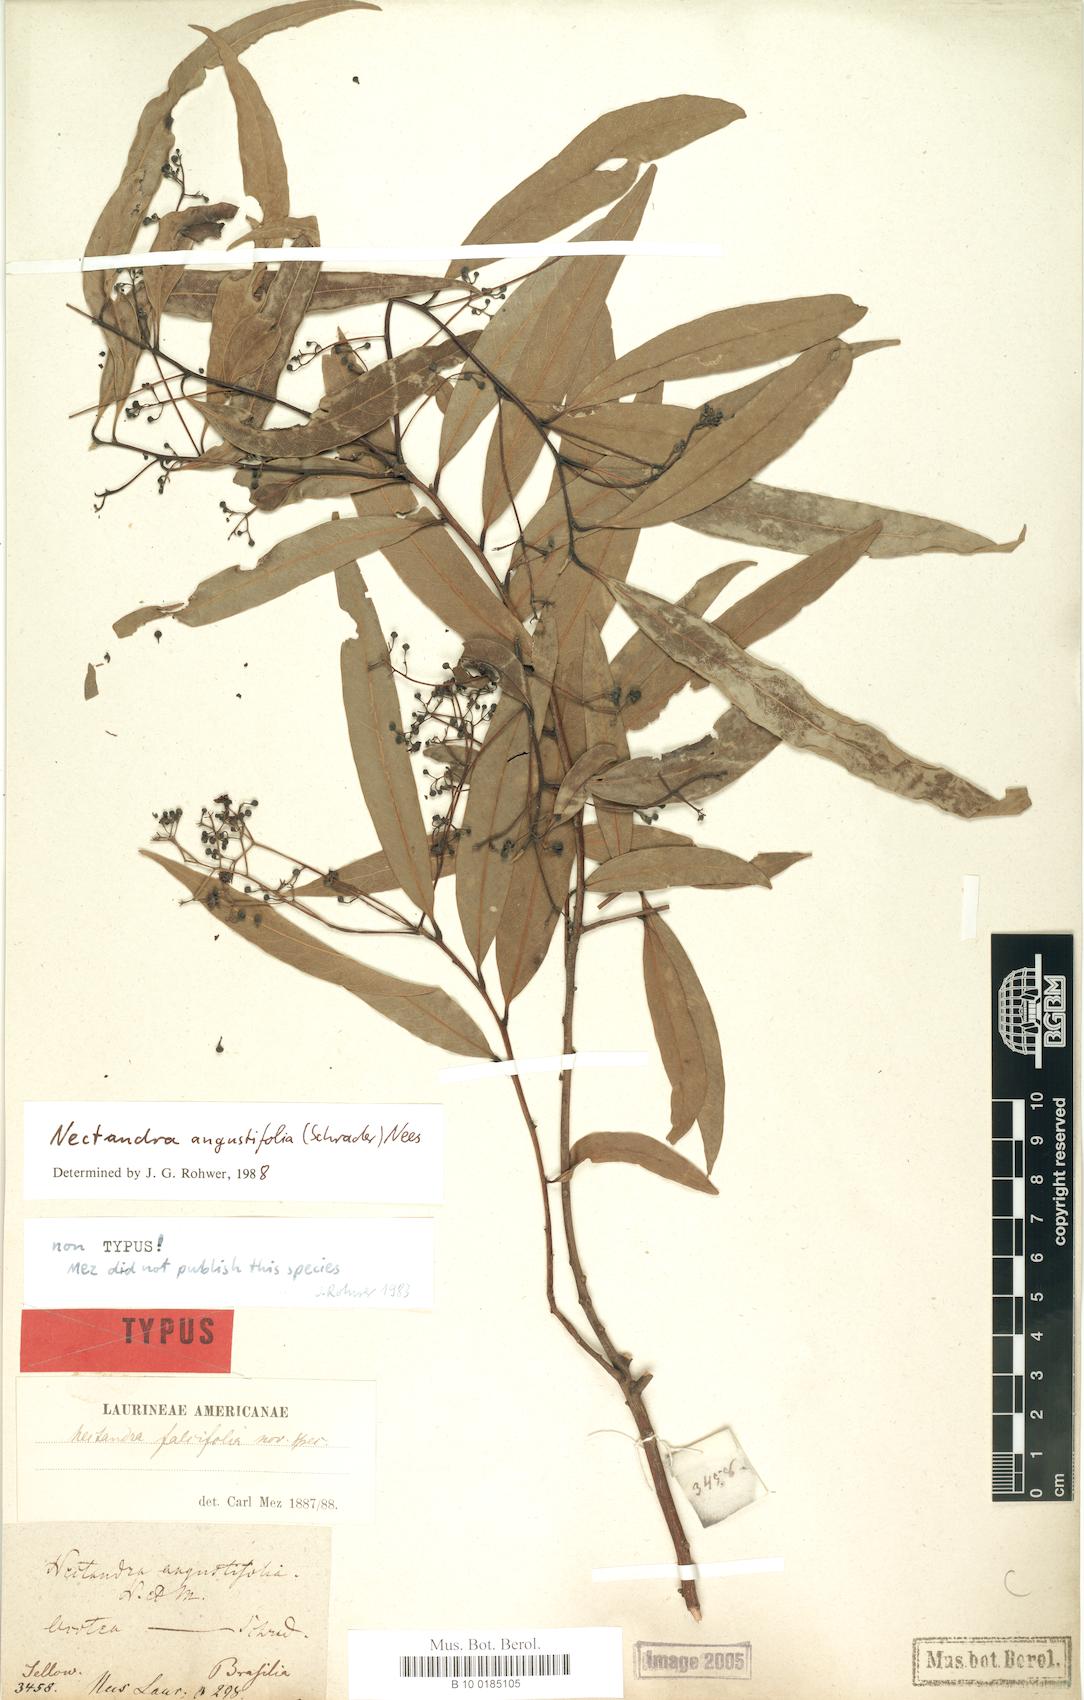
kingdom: Plantae
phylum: Tracheophyta
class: Magnoliopsida
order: Laurales
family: Lauraceae
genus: Nectandra
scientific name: Nectandra angustifolia
